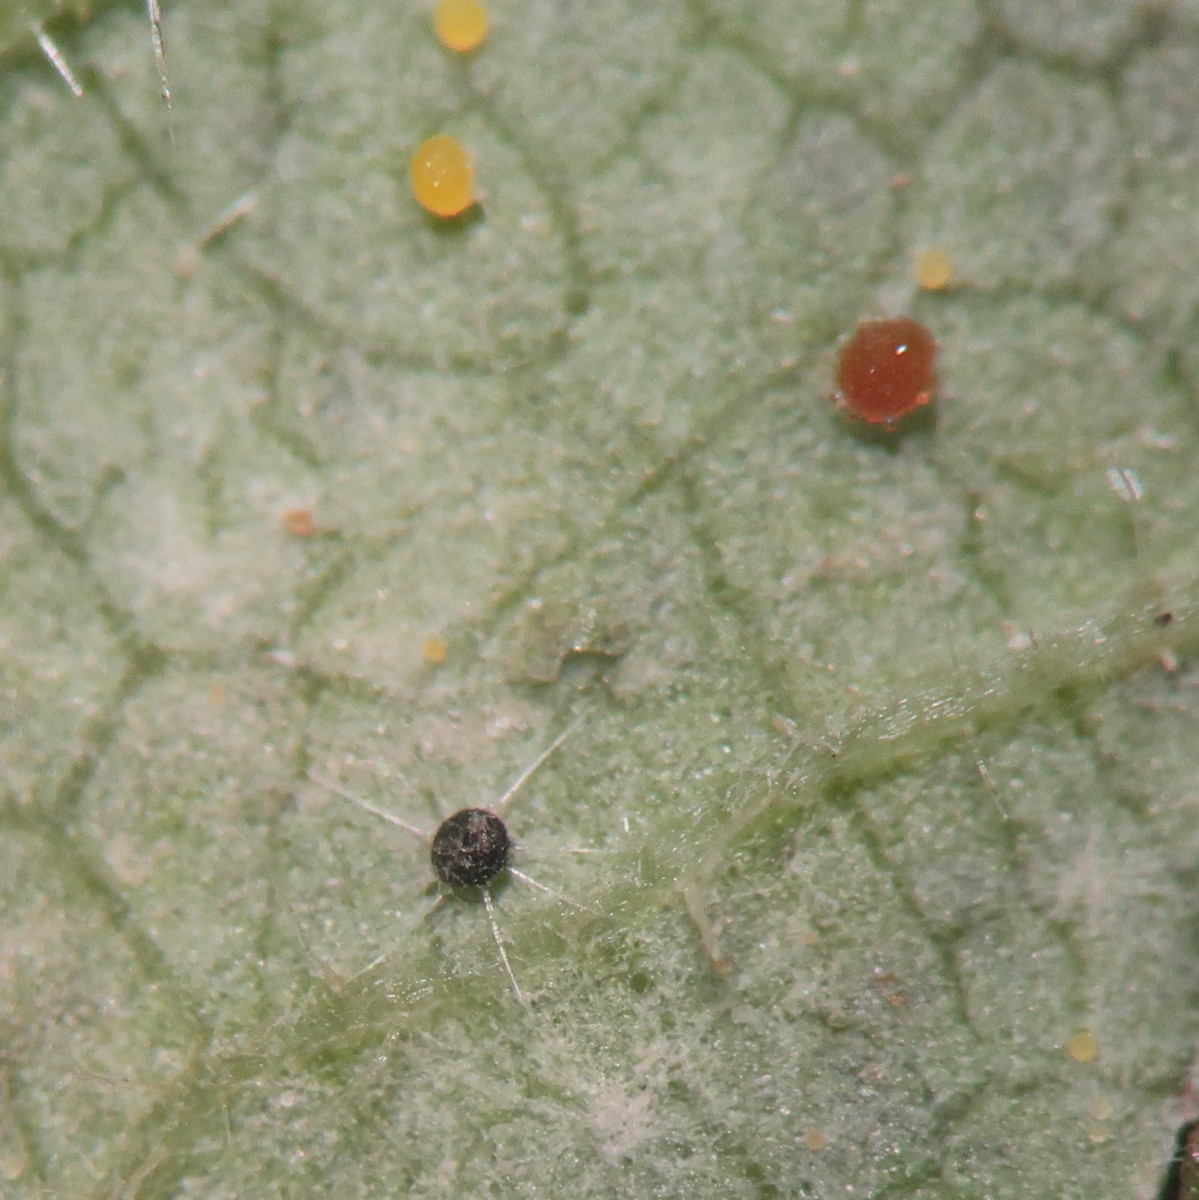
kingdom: Fungi
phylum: Ascomycota
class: Leotiomycetes
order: Helotiales
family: Erysiphaceae
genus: Phyllactinia
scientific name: Phyllactinia guttata
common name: hassel-meldug
